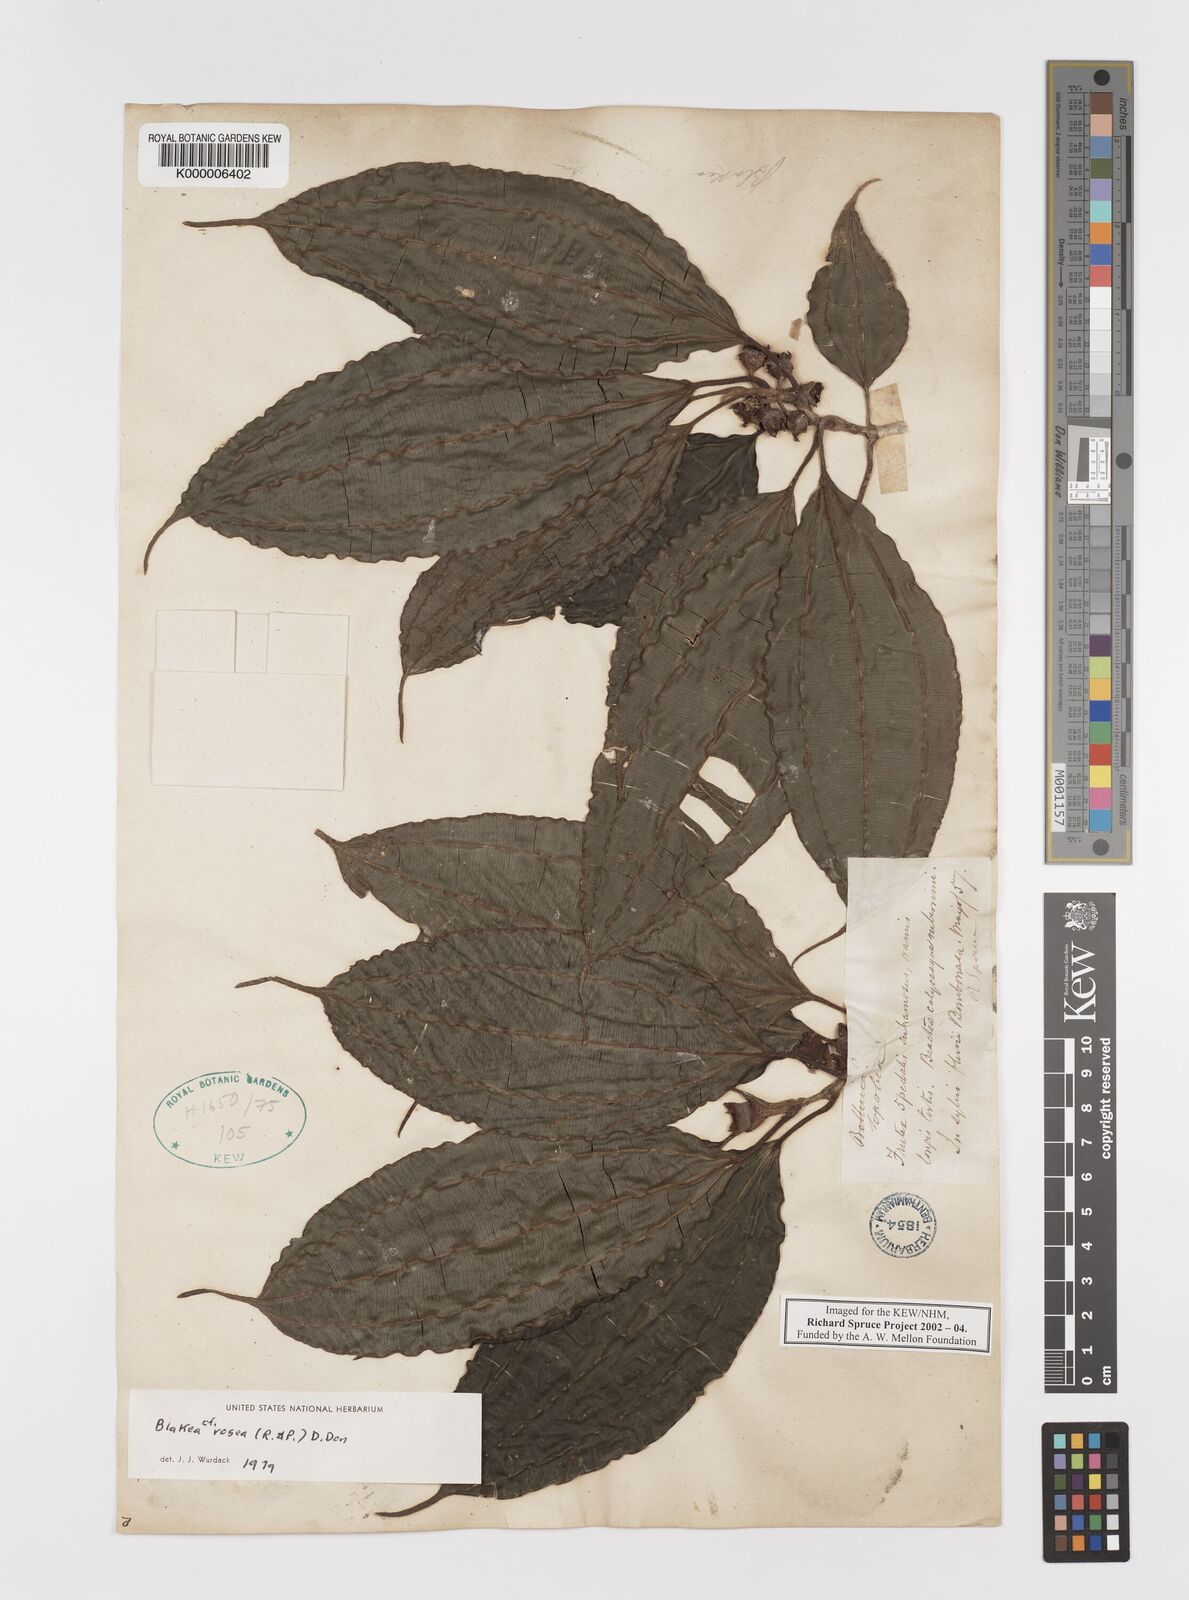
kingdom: Plantae
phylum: Tracheophyta
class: Magnoliopsida
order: Myrtales
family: Melastomataceae
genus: Blakea
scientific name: Blakea rosea
